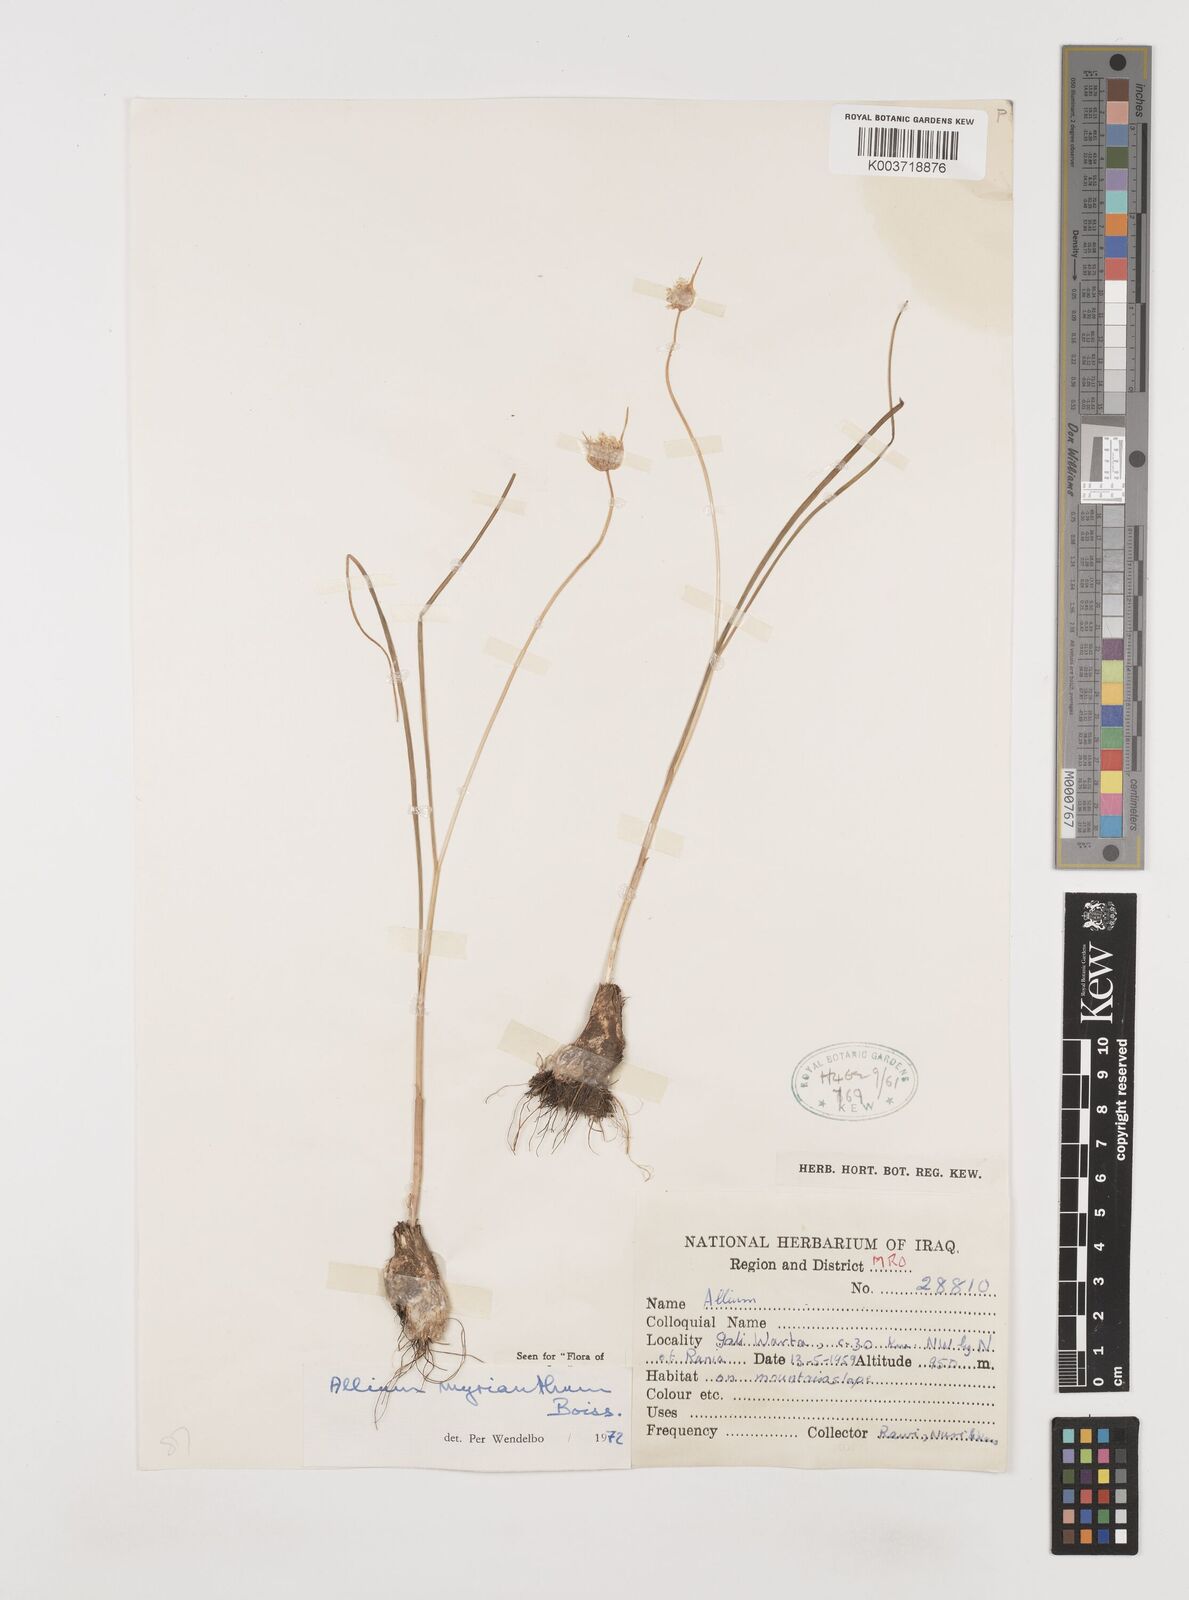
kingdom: Plantae
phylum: Tracheophyta
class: Liliopsida
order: Asparagales
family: Amaryllidaceae
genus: Allium
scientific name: Allium myrianthum
